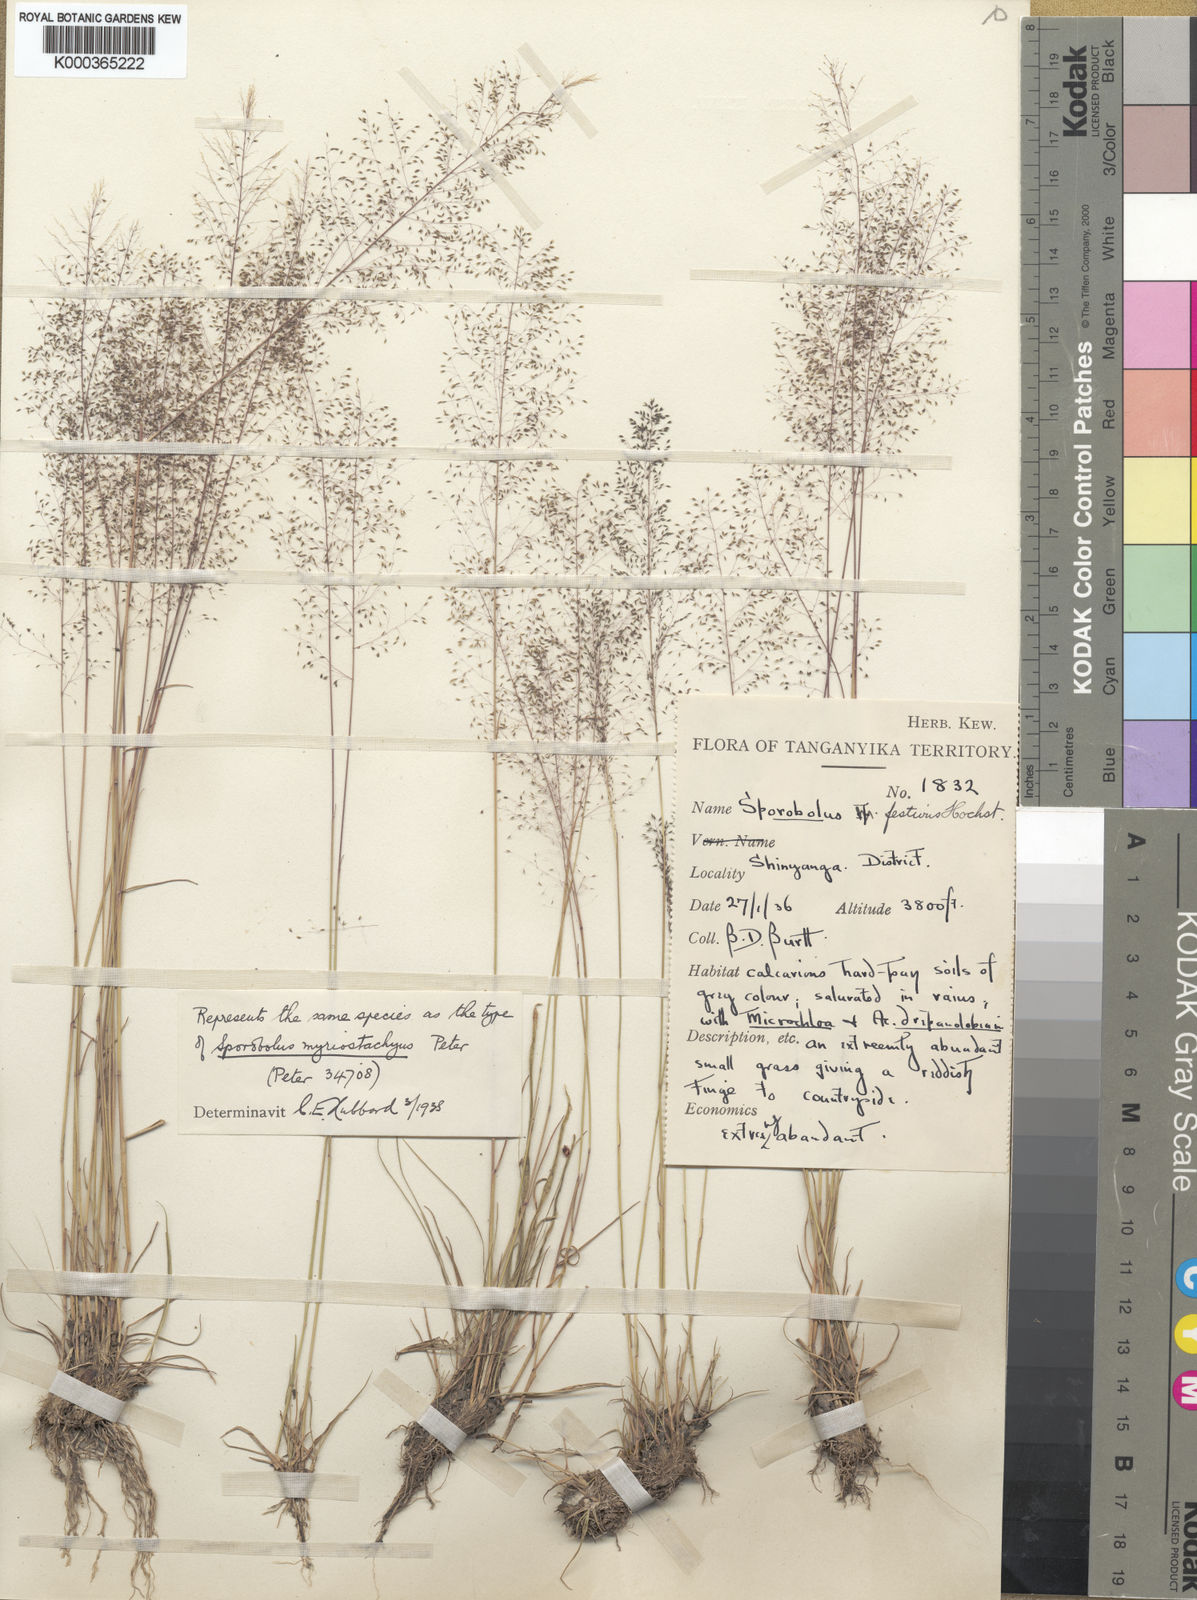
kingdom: Plantae
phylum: Tracheophyta
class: Liliopsida
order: Poales
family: Poaceae
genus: Sporobolus
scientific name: Sporobolus festivus
